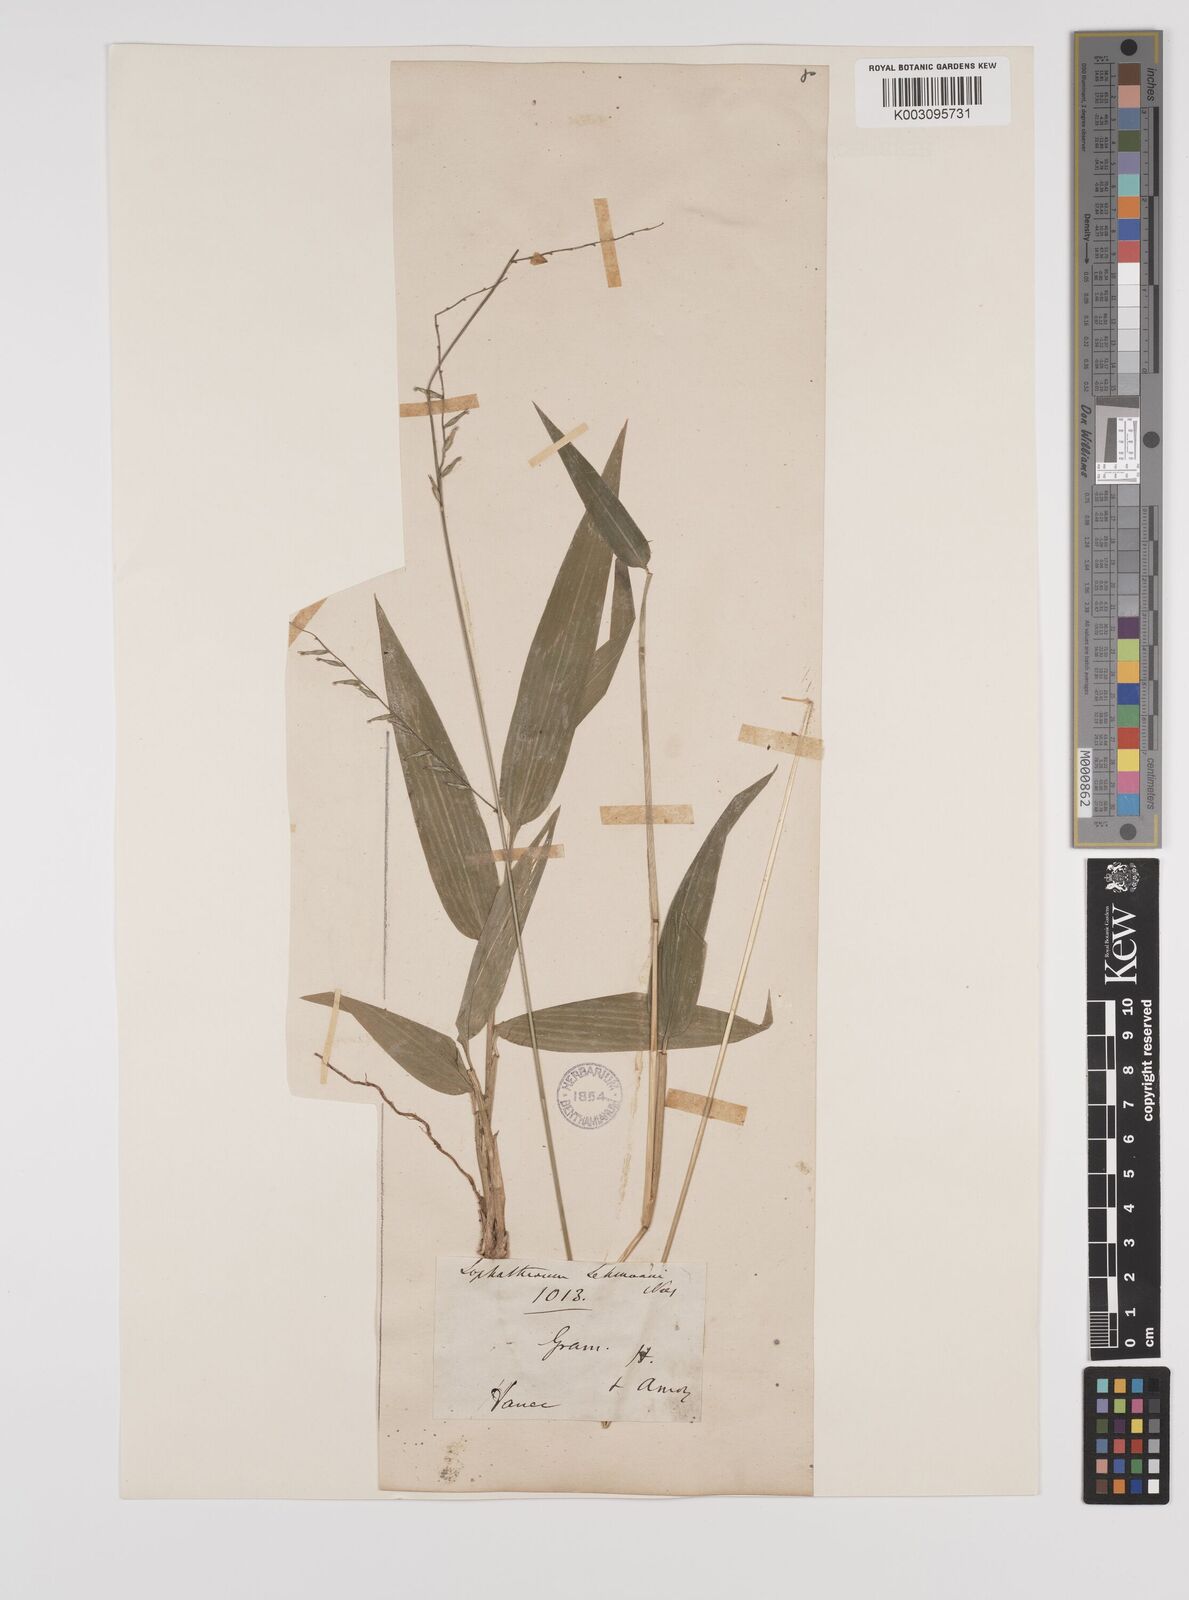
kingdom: Plantae
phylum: Tracheophyta
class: Liliopsida
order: Poales
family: Poaceae
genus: Lophatherum
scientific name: Lophatherum gracile
